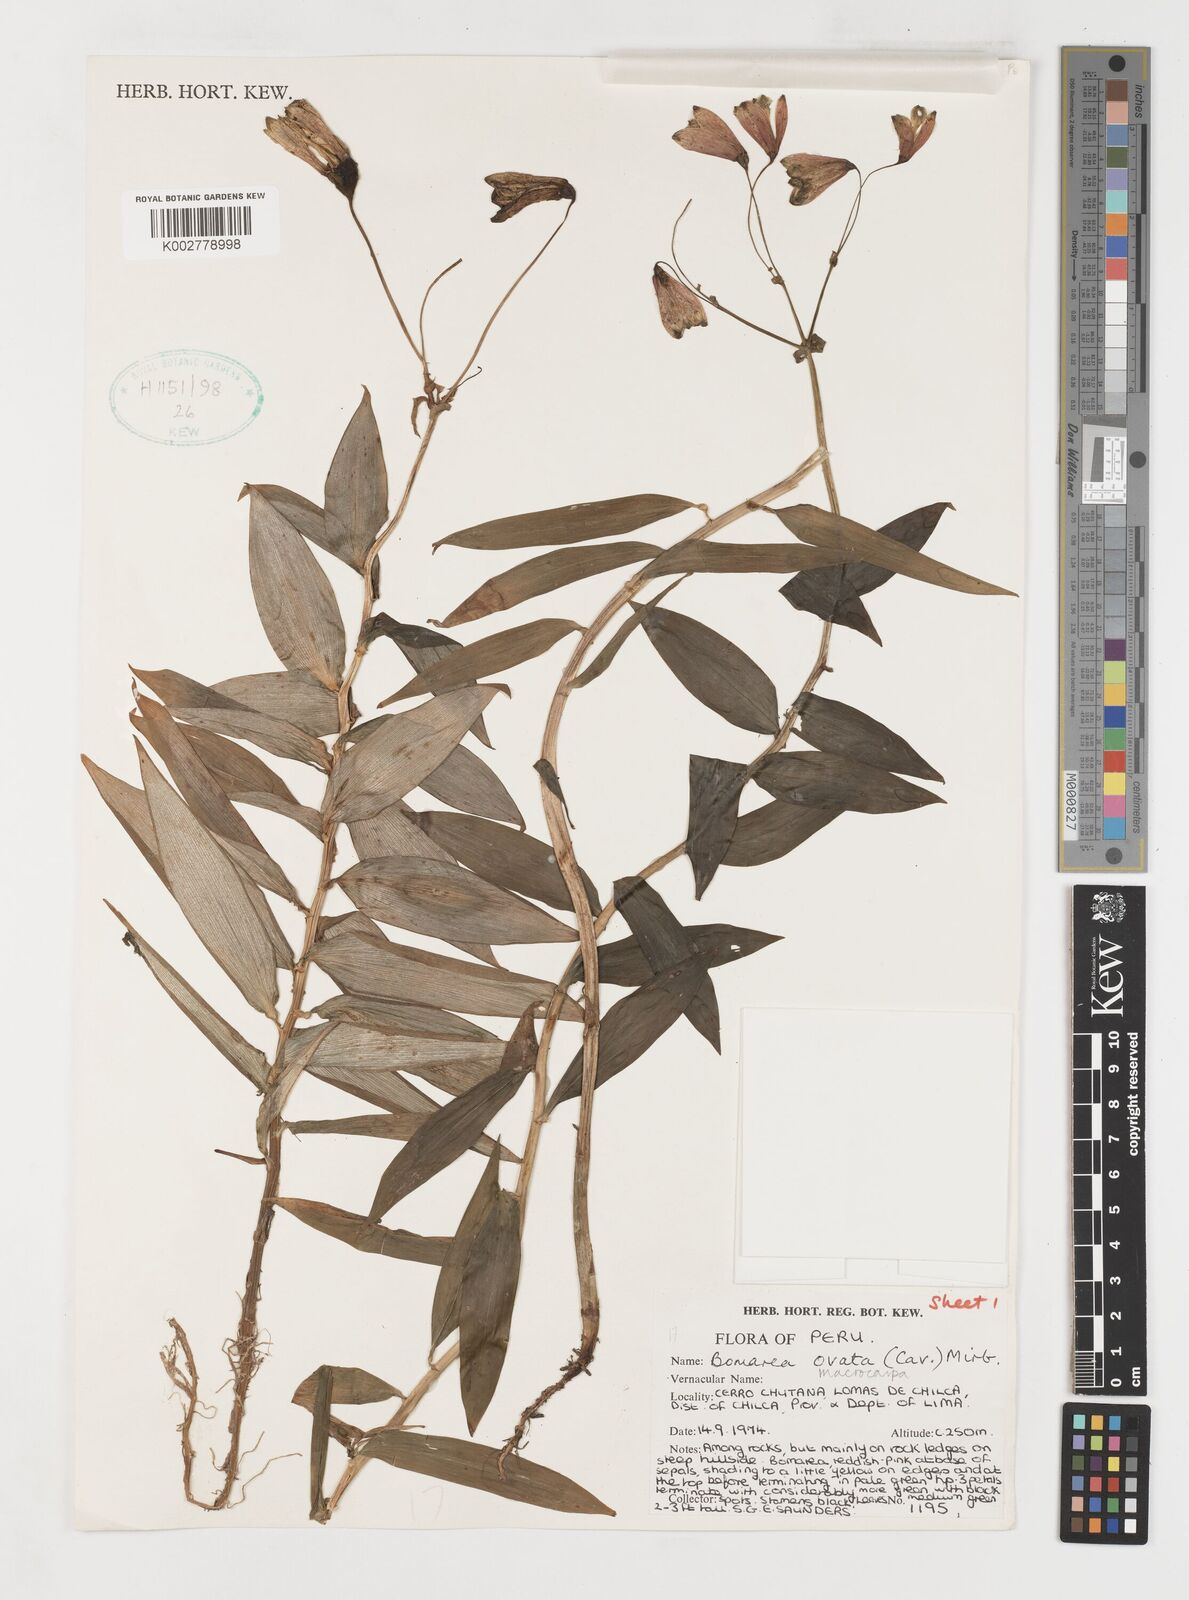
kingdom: Plantae
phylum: Tracheophyta
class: Liliopsida
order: Liliales
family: Alstroemeriaceae
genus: Bomarea
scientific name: Bomarea ovata
